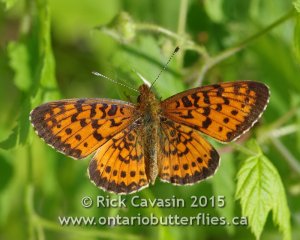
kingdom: Animalia
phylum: Arthropoda
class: Insecta
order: Lepidoptera
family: Nymphalidae
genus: Boloria
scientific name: Boloria selene
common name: Silver-bordered Fritillary
